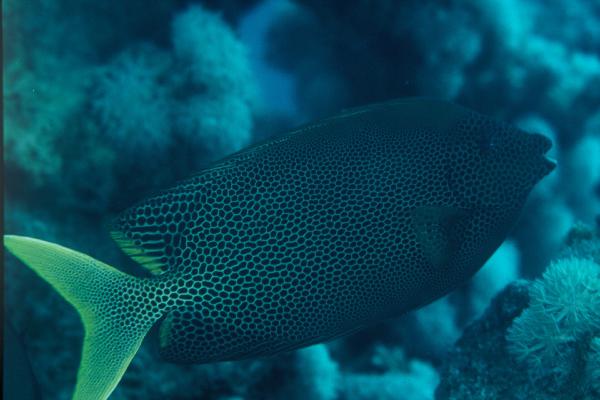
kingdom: Animalia
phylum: Chordata
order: Perciformes
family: Siganidae
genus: Siganus
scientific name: Siganus stellatus
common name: Brown-spotted spinefoot
